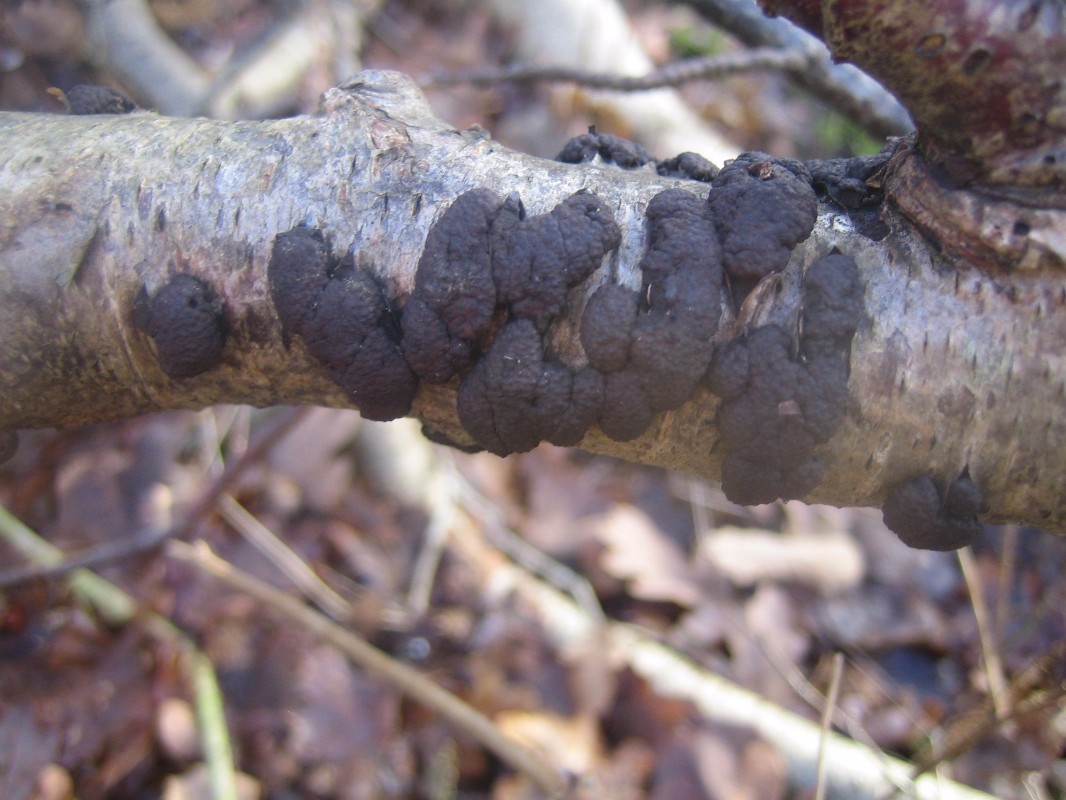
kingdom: Fungi
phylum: Ascomycota
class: Sordariomycetes
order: Xylariales
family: Hypoxylaceae
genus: Jackrogersella
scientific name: Jackrogersella multiformis
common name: foranderlig kulbær
